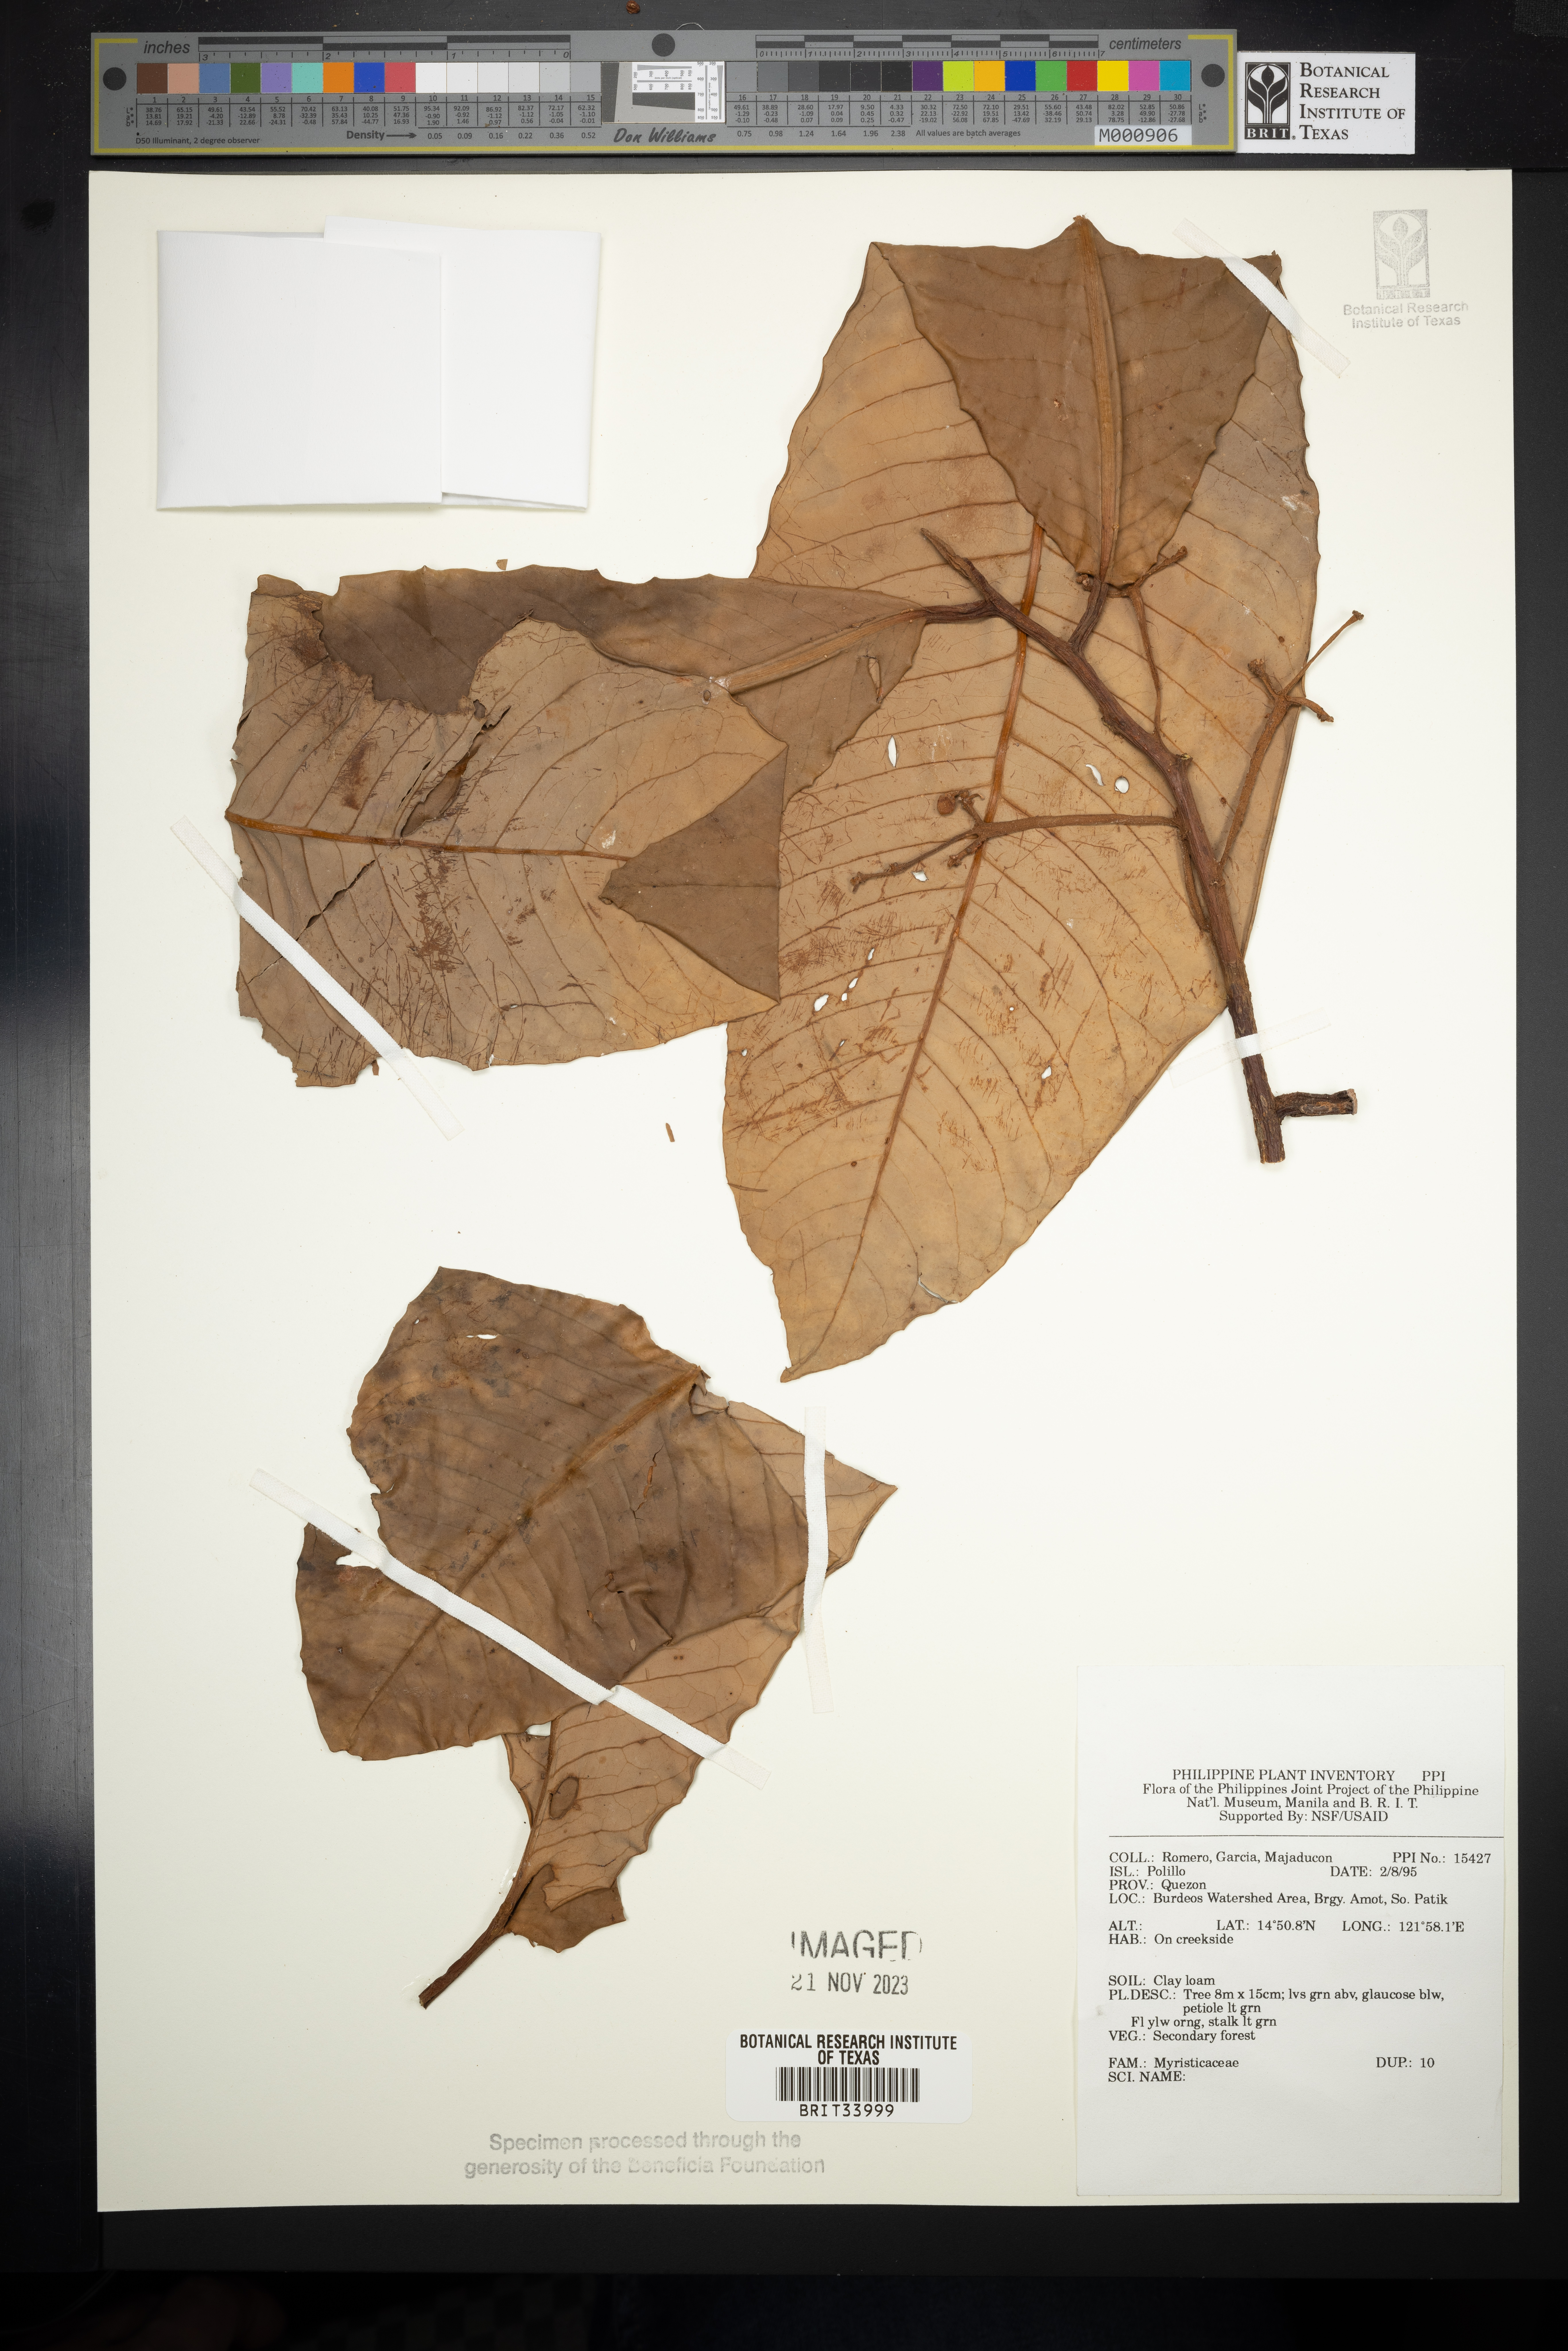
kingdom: Plantae
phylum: Tracheophyta
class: Magnoliopsida
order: Magnoliales
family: Myristicaceae
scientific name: Myristicaceae
